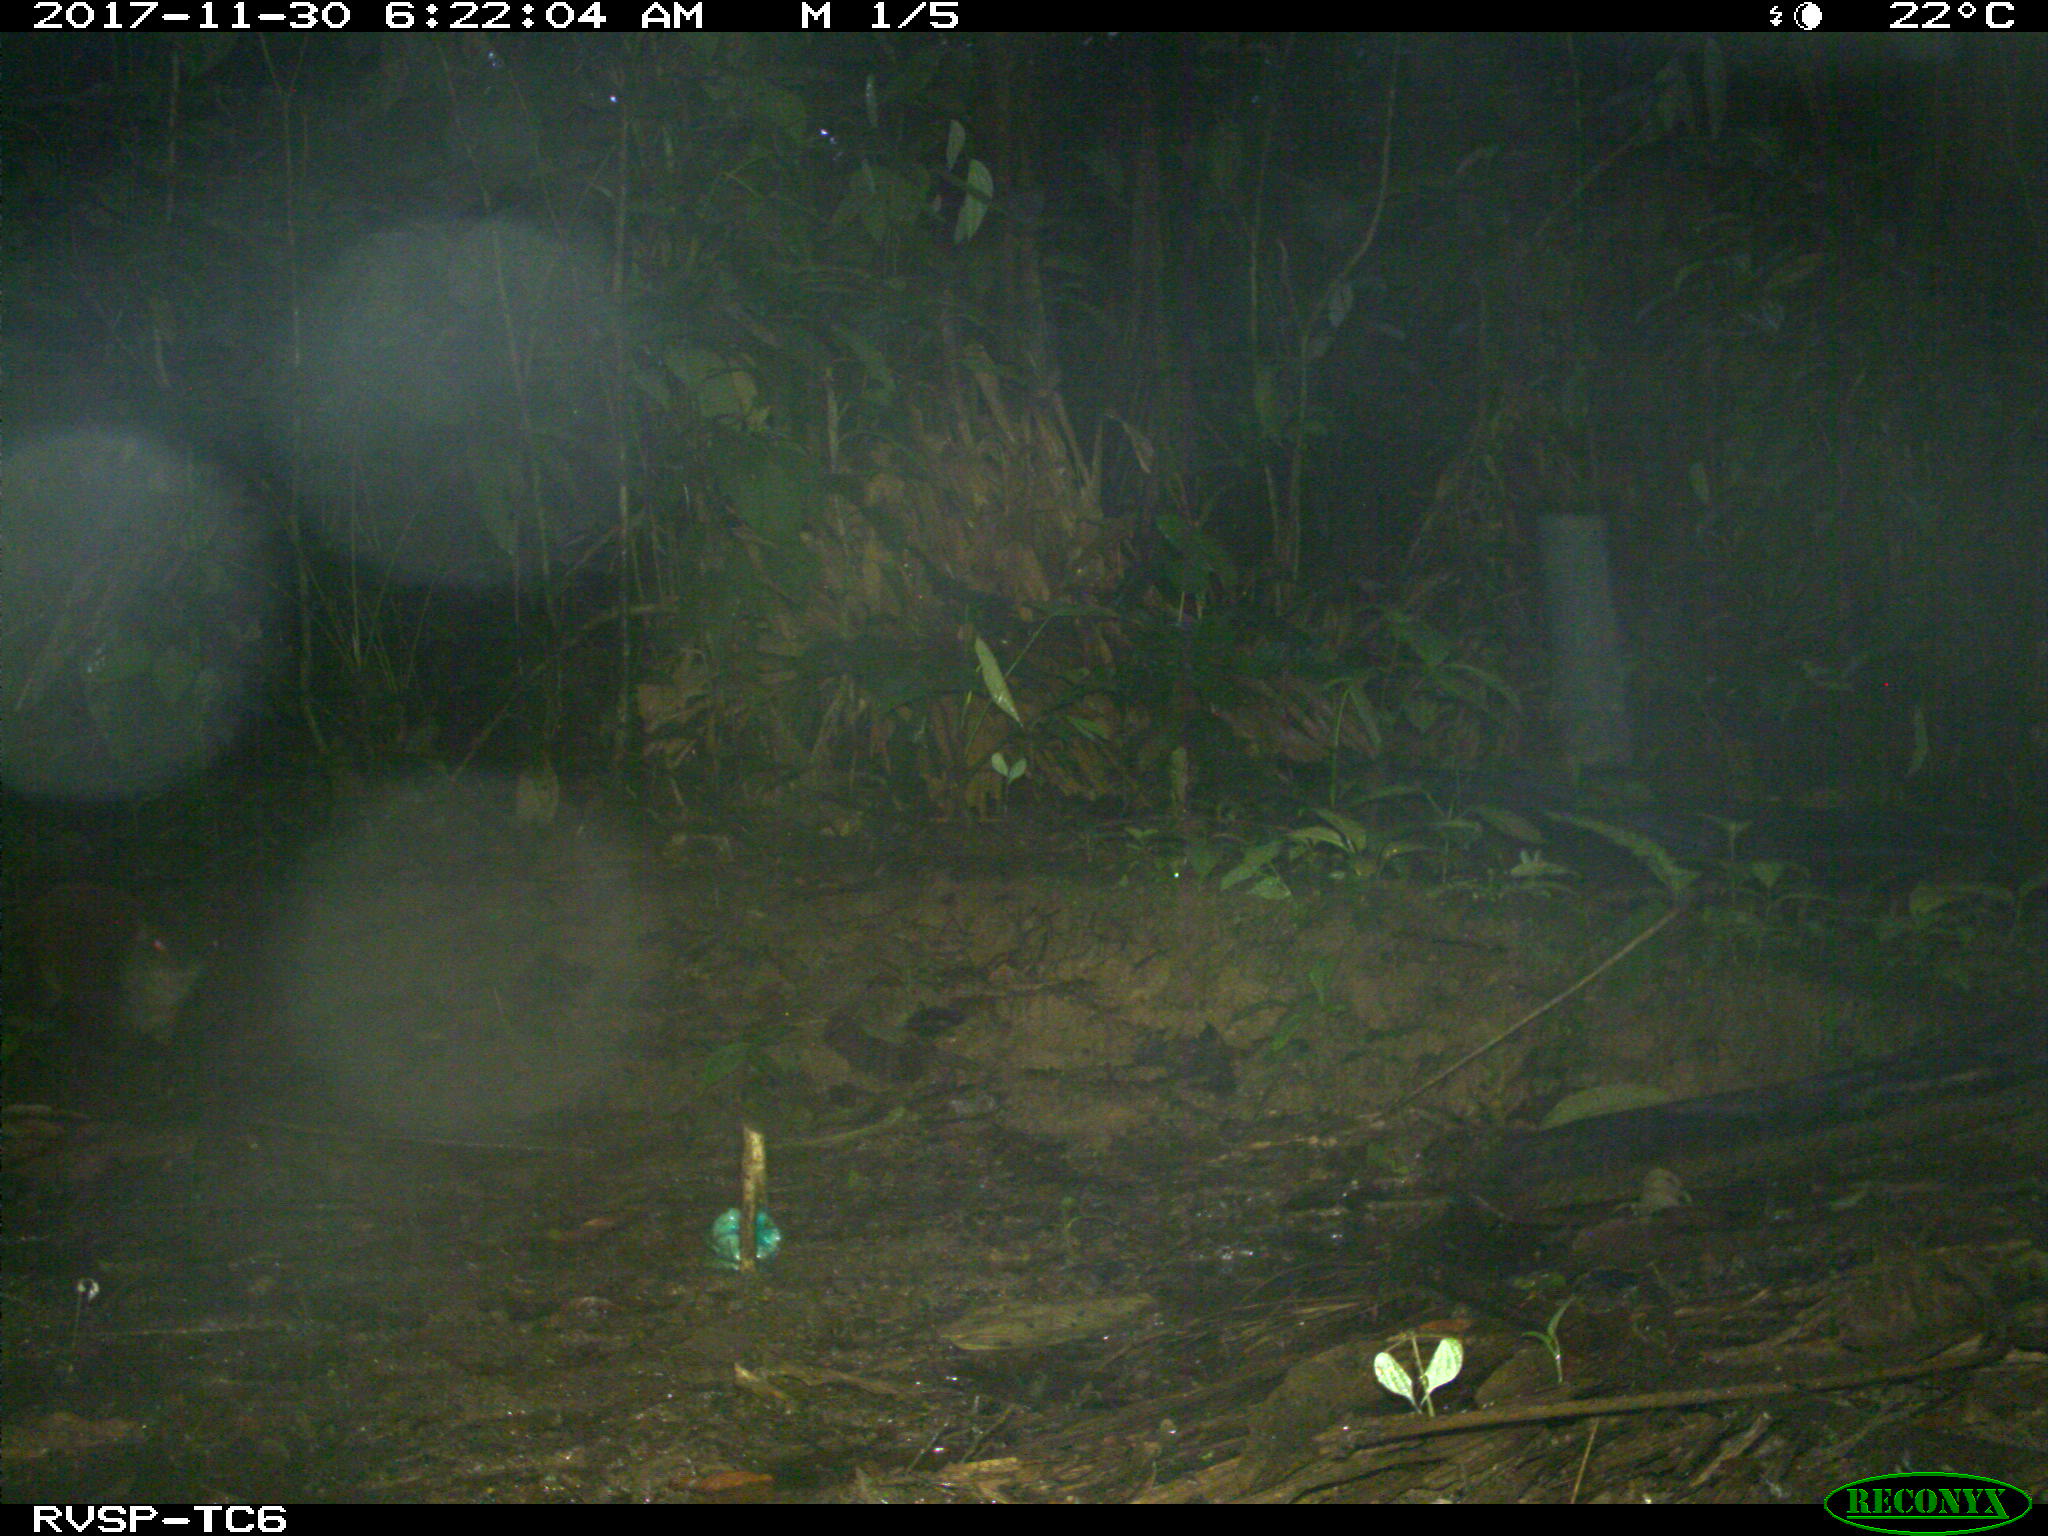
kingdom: Animalia
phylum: Chordata
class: Mammalia
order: Rodentia
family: Dasyproctidae
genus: Dasyprocta
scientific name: Dasyprocta punctata
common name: Central american agouti
